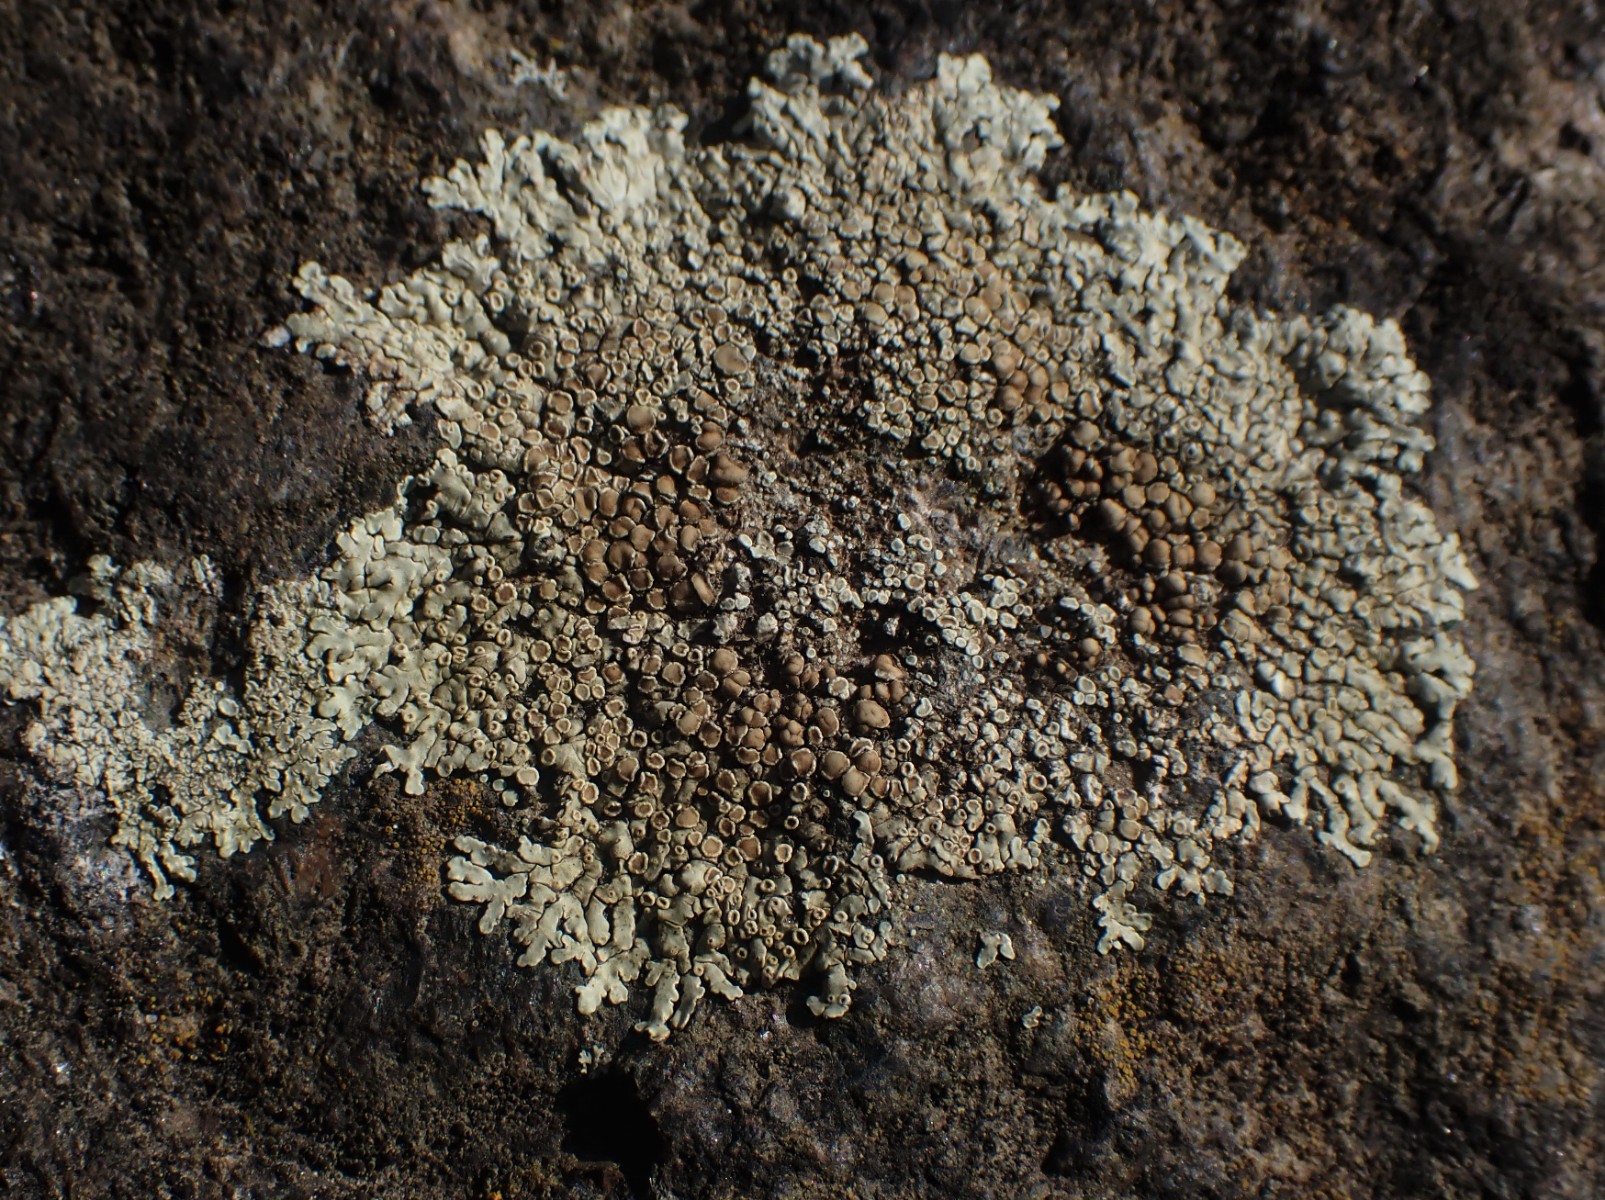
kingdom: Fungi
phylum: Ascomycota
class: Lecanoromycetes
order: Lecanorales
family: Lecanoraceae
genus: Protoparmeliopsis
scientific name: Protoparmeliopsis muralis
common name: randfliget kantskivelav
